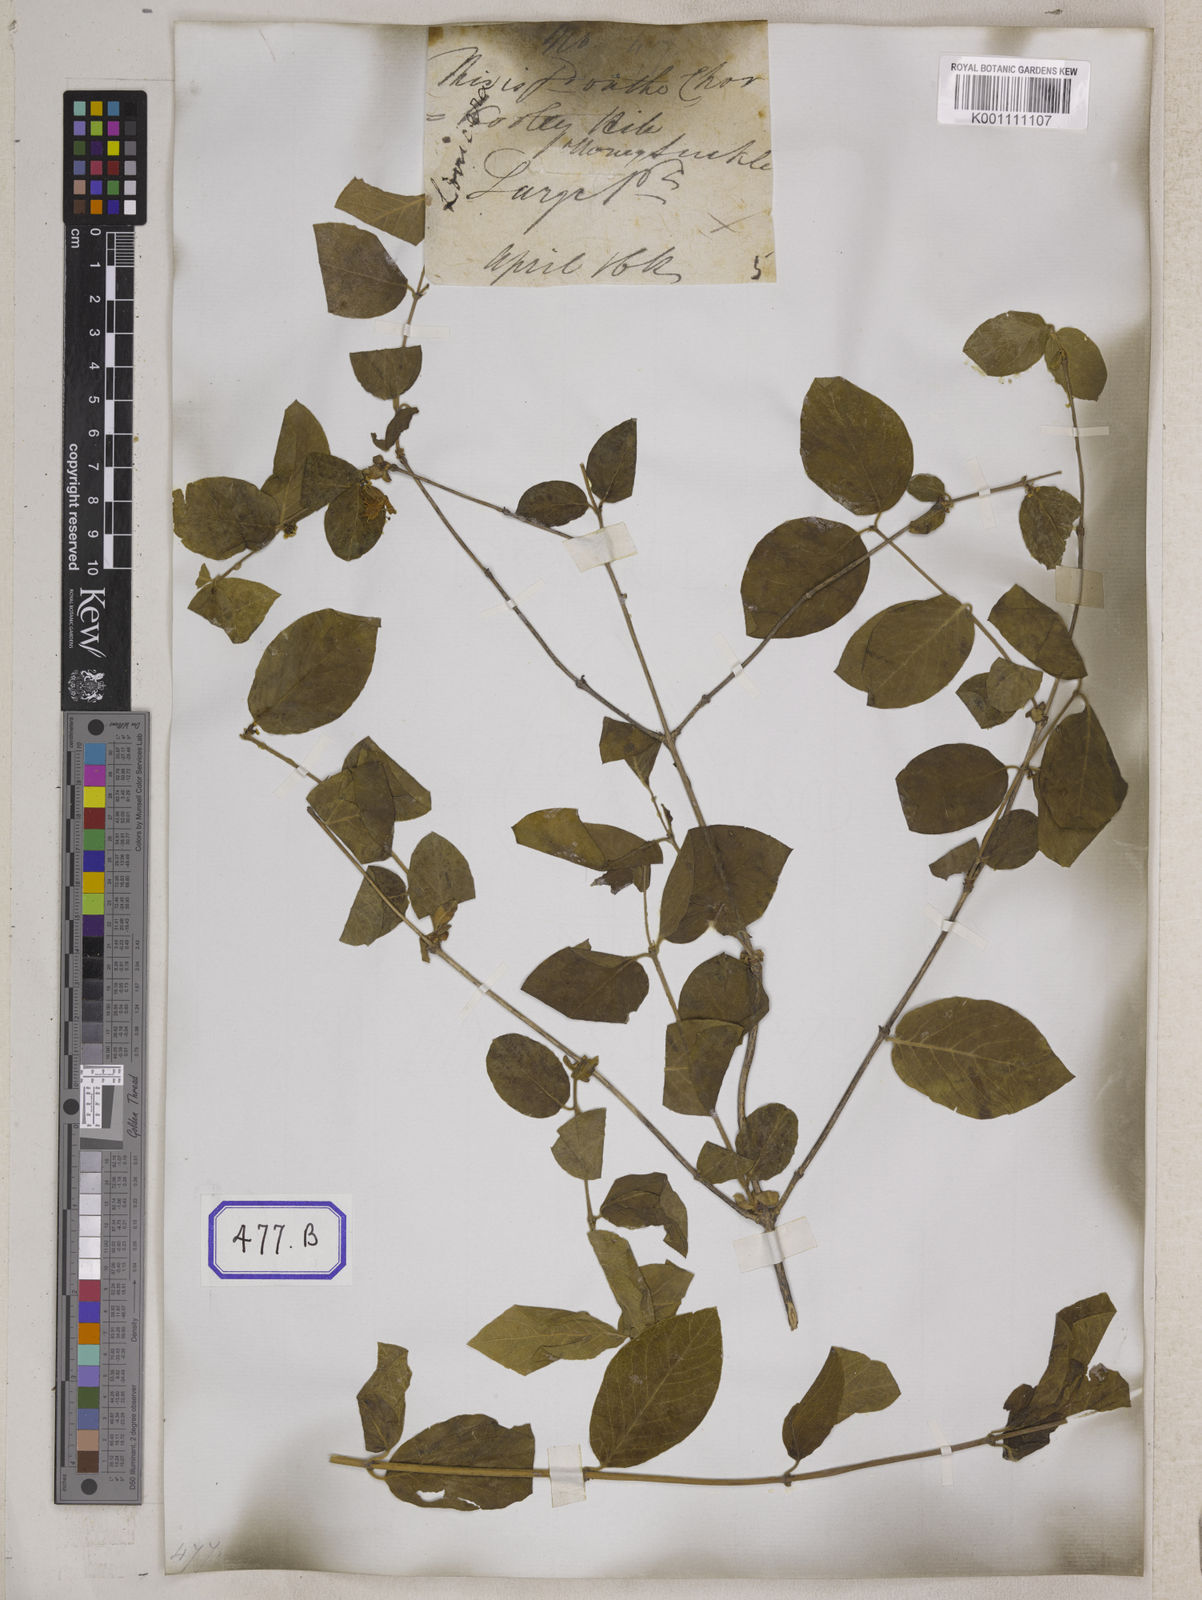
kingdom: Plantae
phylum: Tracheophyta
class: Magnoliopsida
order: Dipsacales
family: Caprifoliaceae
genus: Lonicera
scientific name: Lonicera quinquelocularis
